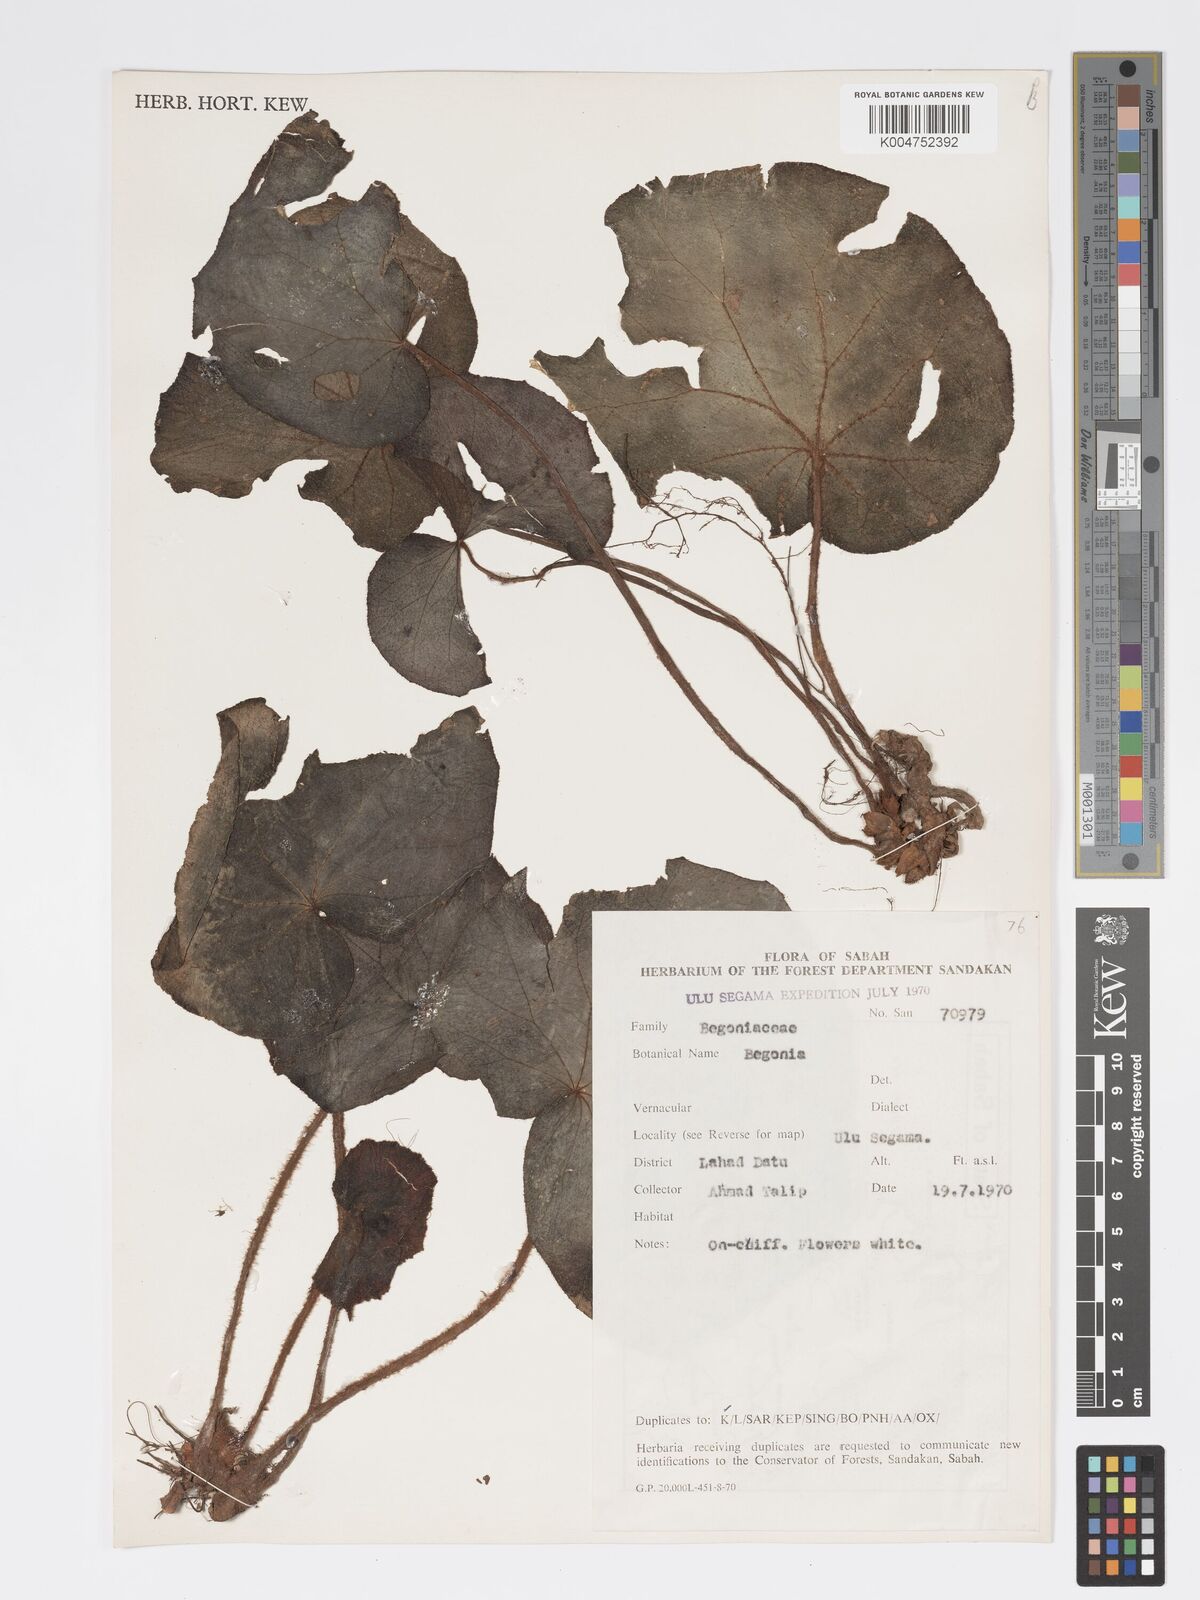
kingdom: Plantae
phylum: Tracheophyta
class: Magnoliopsida
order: Cucurbitales
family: Begoniaceae
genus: Begonia
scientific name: Begonia gueritziana
